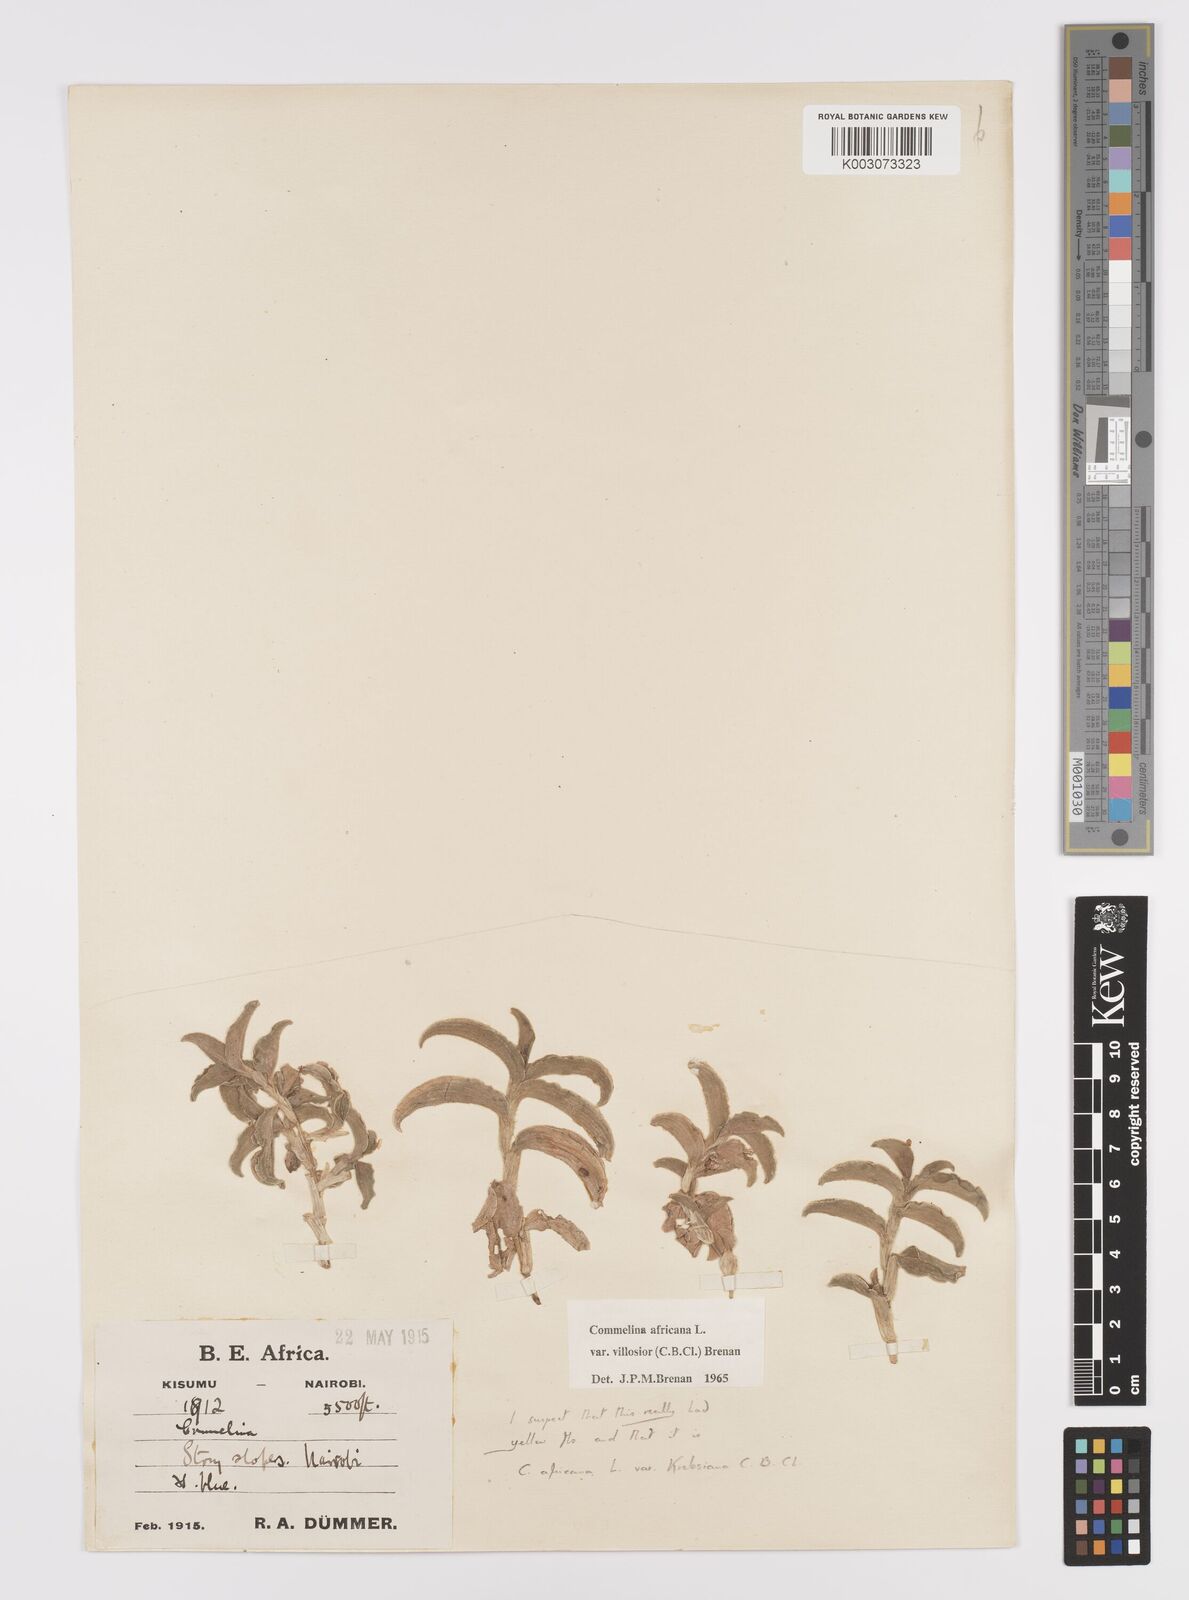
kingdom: Plantae
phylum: Tracheophyta
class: Liliopsida
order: Commelinales
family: Commelinaceae
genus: Commelina
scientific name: Commelina africana
